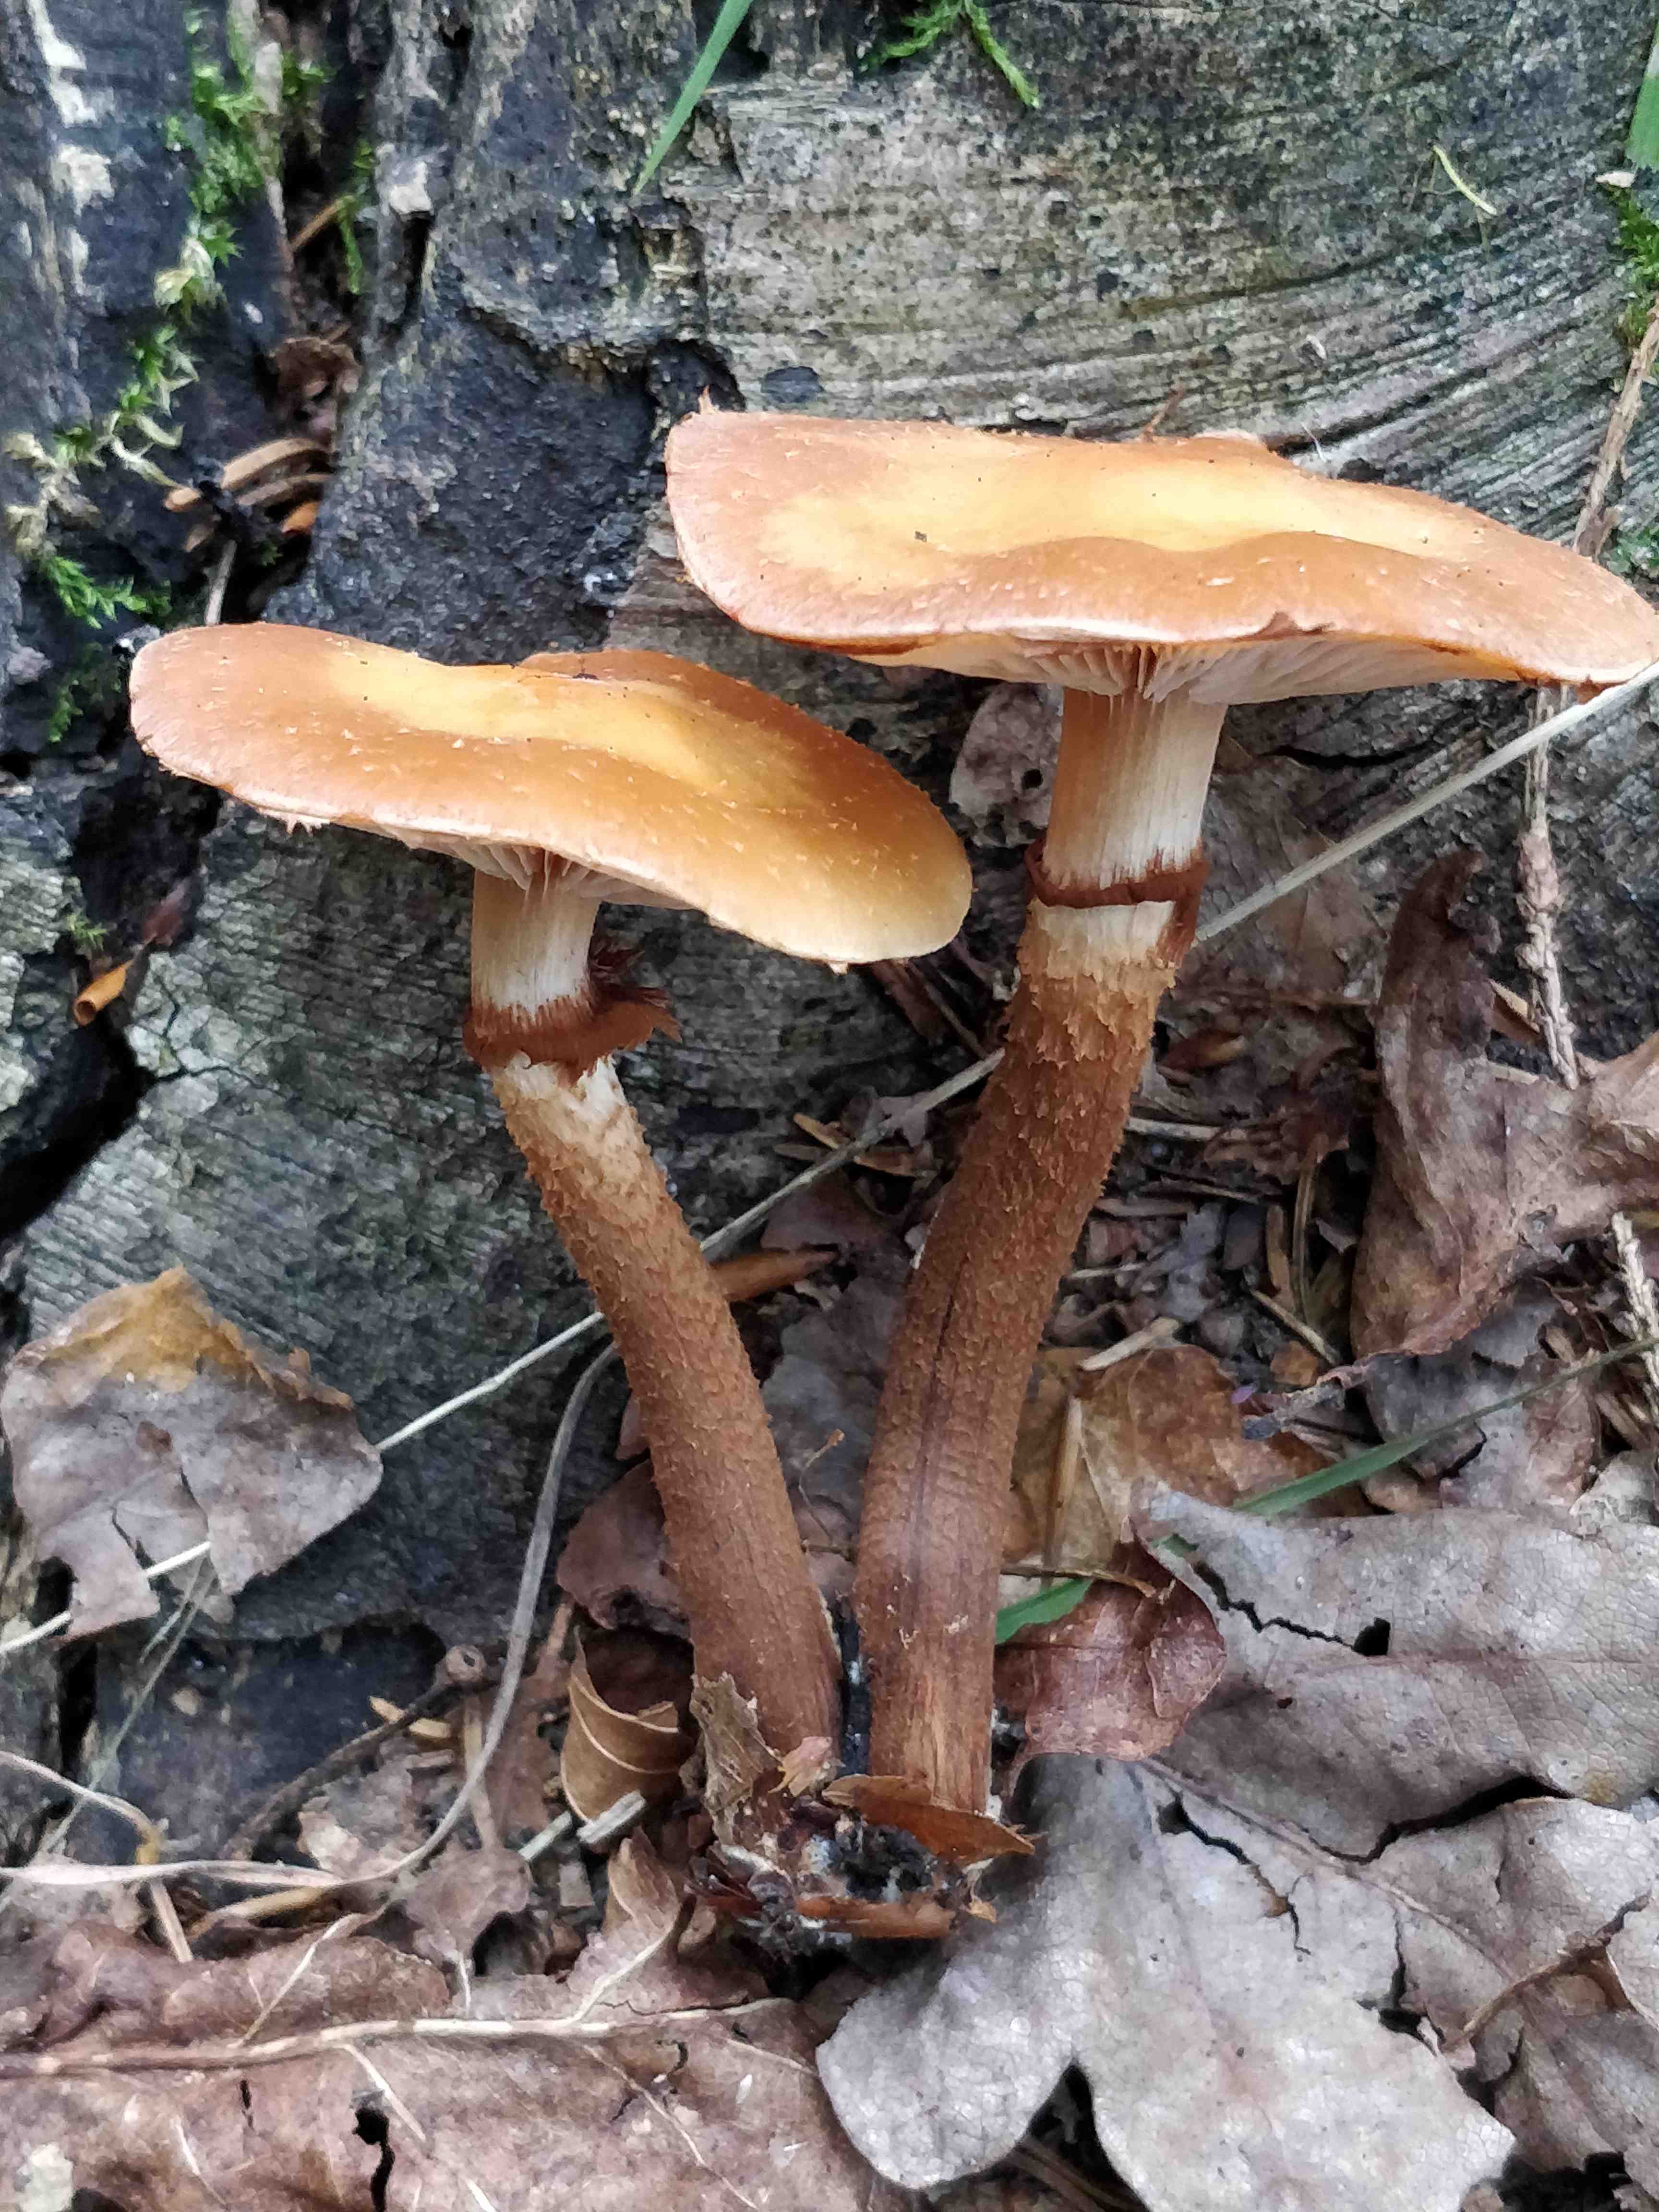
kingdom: Fungi
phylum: Basidiomycota
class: Agaricomycetes
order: Agaricales
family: Strophariaceae
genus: Kuehneromyces
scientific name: Kuehneromyces mutabilis
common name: foranderlig skælhat
